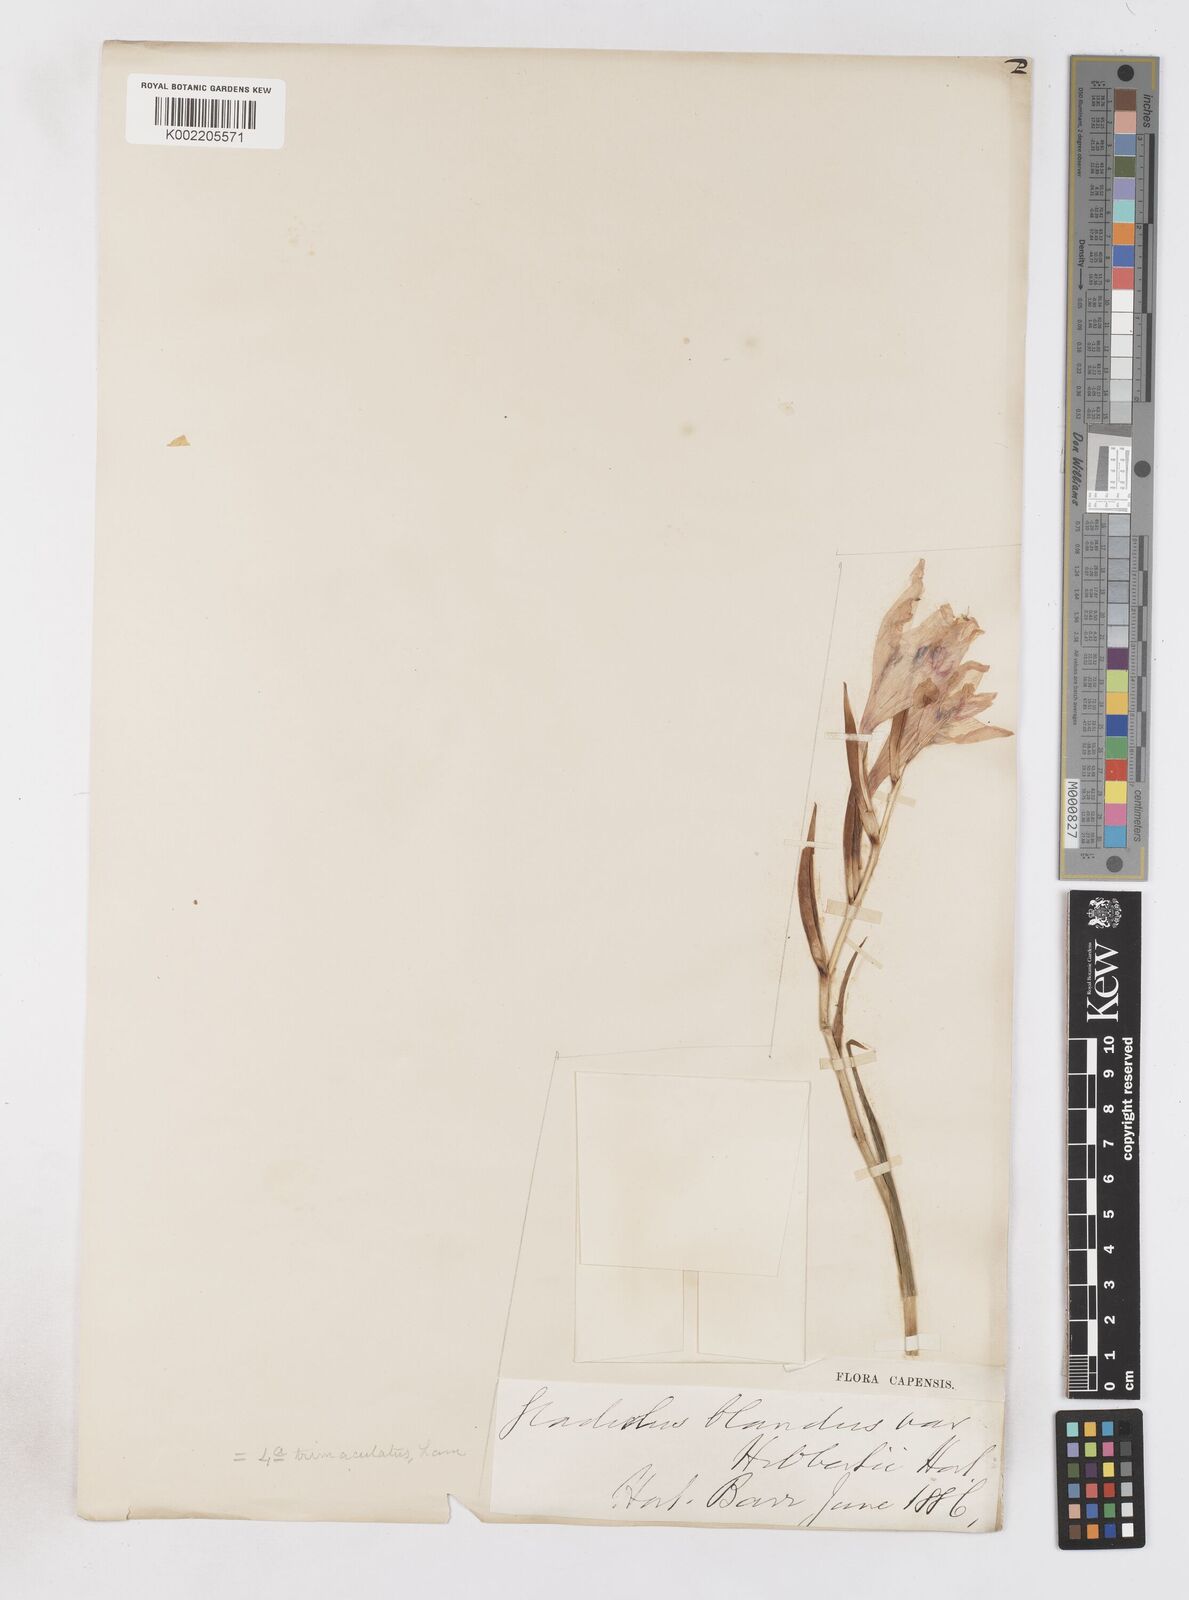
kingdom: Plantae
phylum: Tracheophyta
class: Liliopsida
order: Asparagales
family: Iridaceae
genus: Gladiolus
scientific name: Gladiolus carneus
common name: Painted-lady
